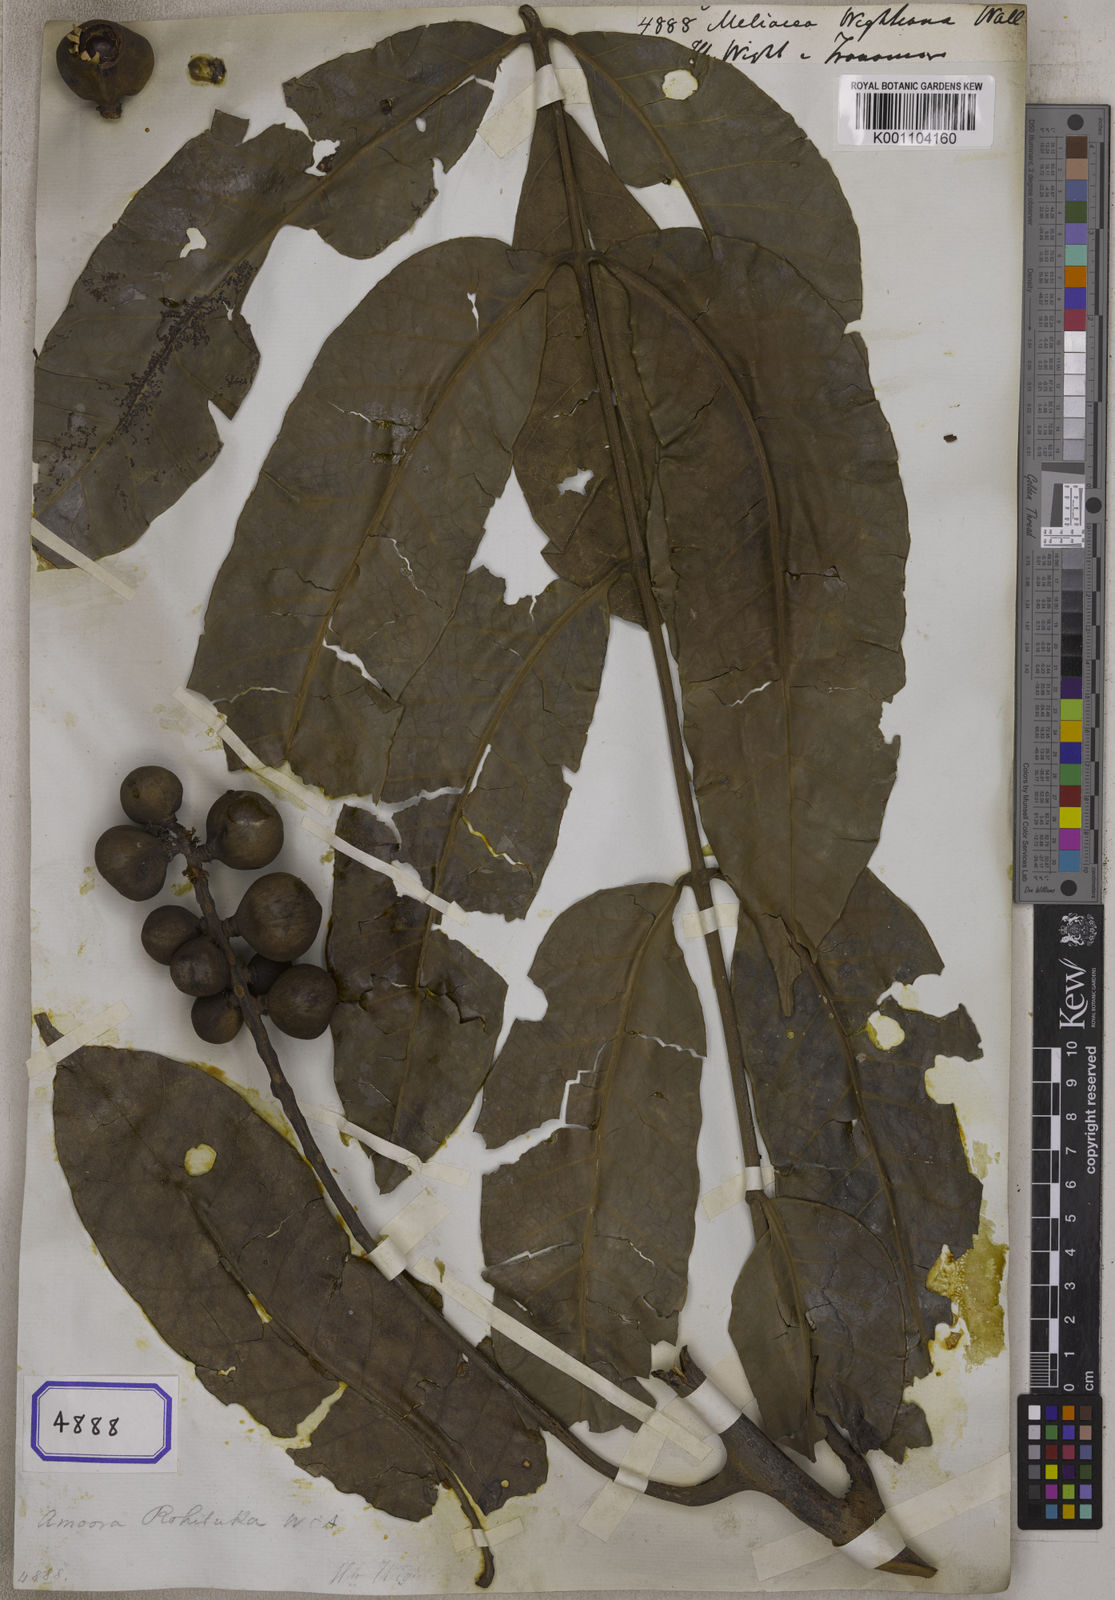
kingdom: Plantae
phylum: Tracheophyta
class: Magnoliopsida
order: Sapindales
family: Meliaceae
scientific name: Meliaceae
